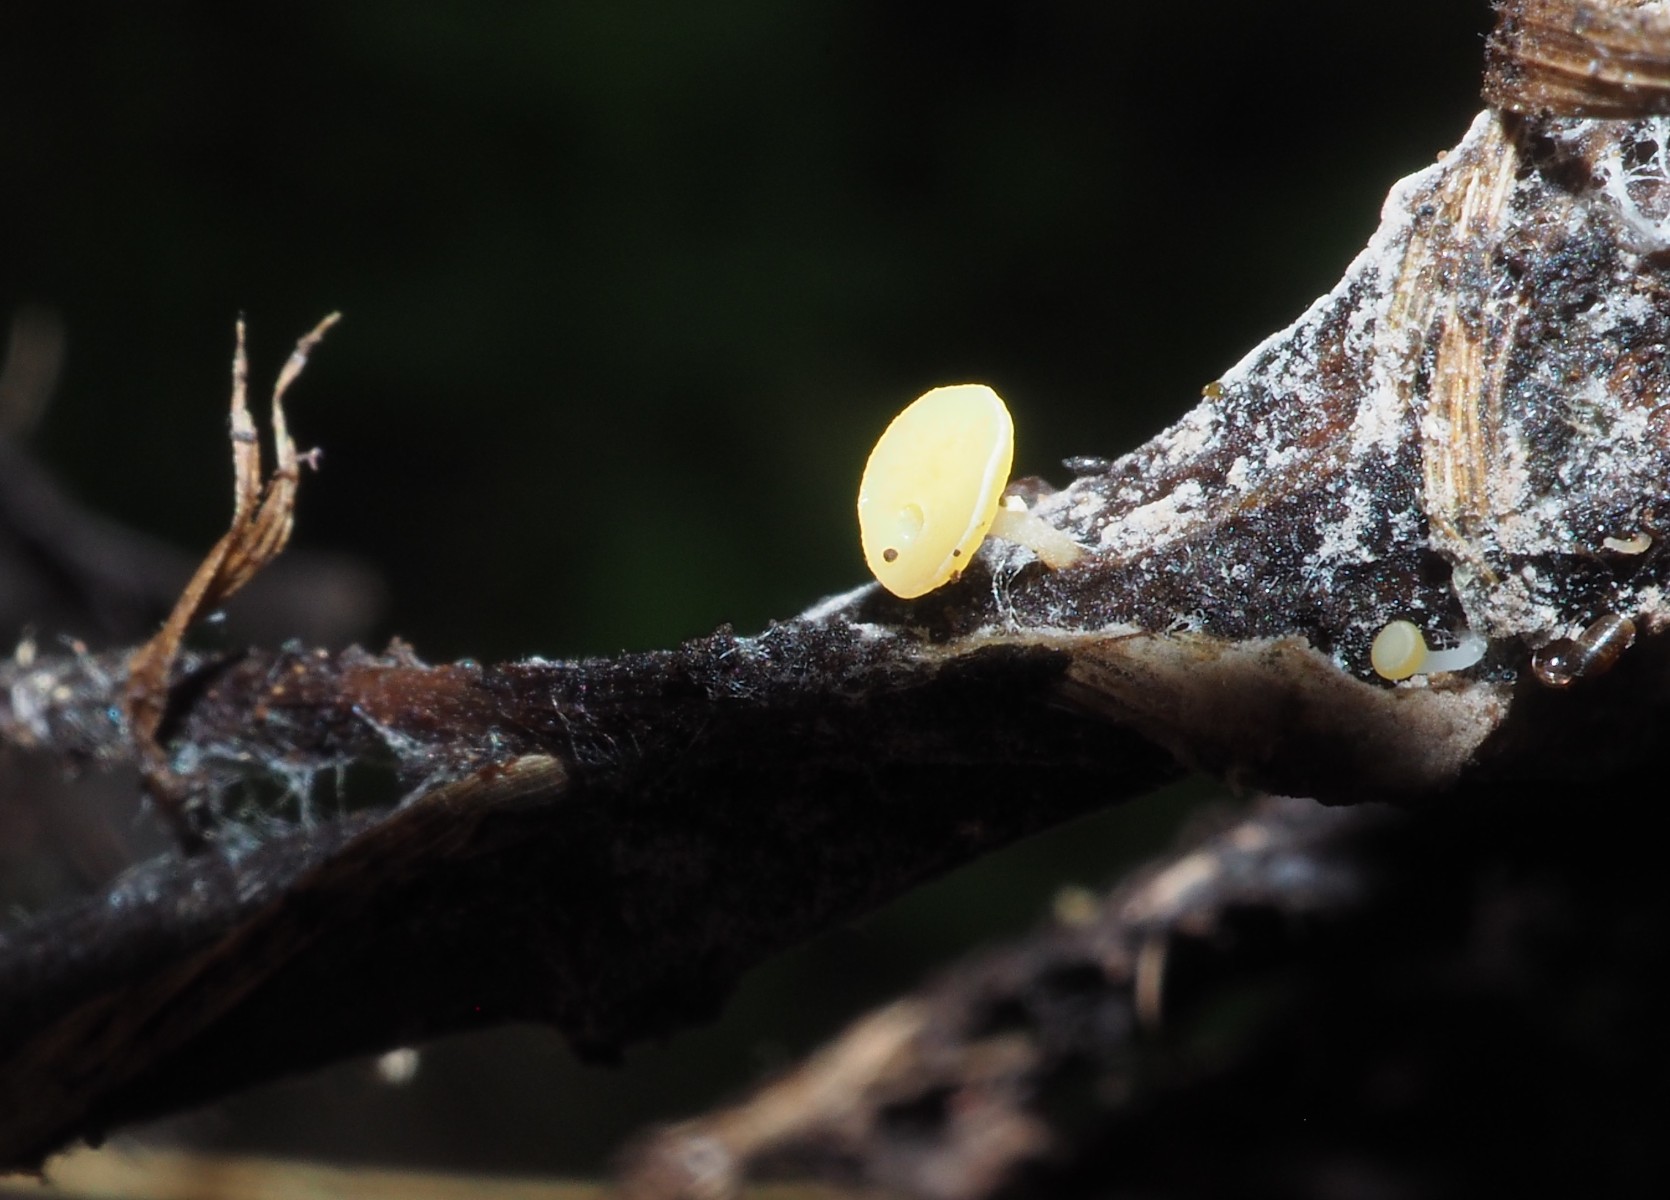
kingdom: Fungi
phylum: Ascomycota
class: Leotiomycetes
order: Helotiales
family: Helotiaceae
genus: Hymenoscyphus
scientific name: Hymenoscyphus menthae
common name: eng-stilkskive
